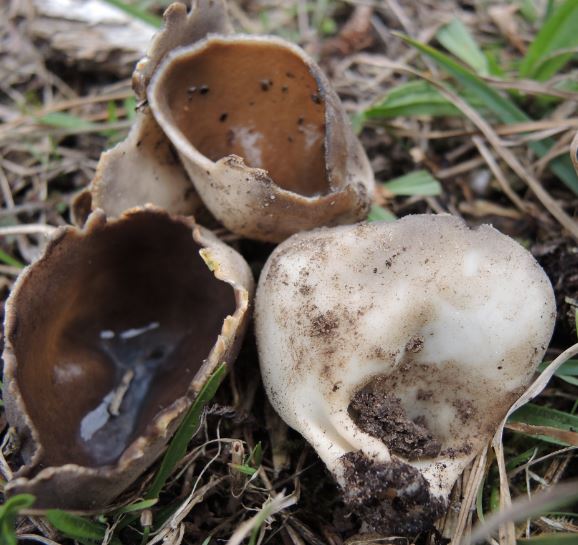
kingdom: Fungi
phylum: Ascomycota
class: Pezizomycetes
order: Pezizales
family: Helvellaceae
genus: Dissingia
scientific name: Dissingia leucomelaena
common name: sorthvid foldhat
